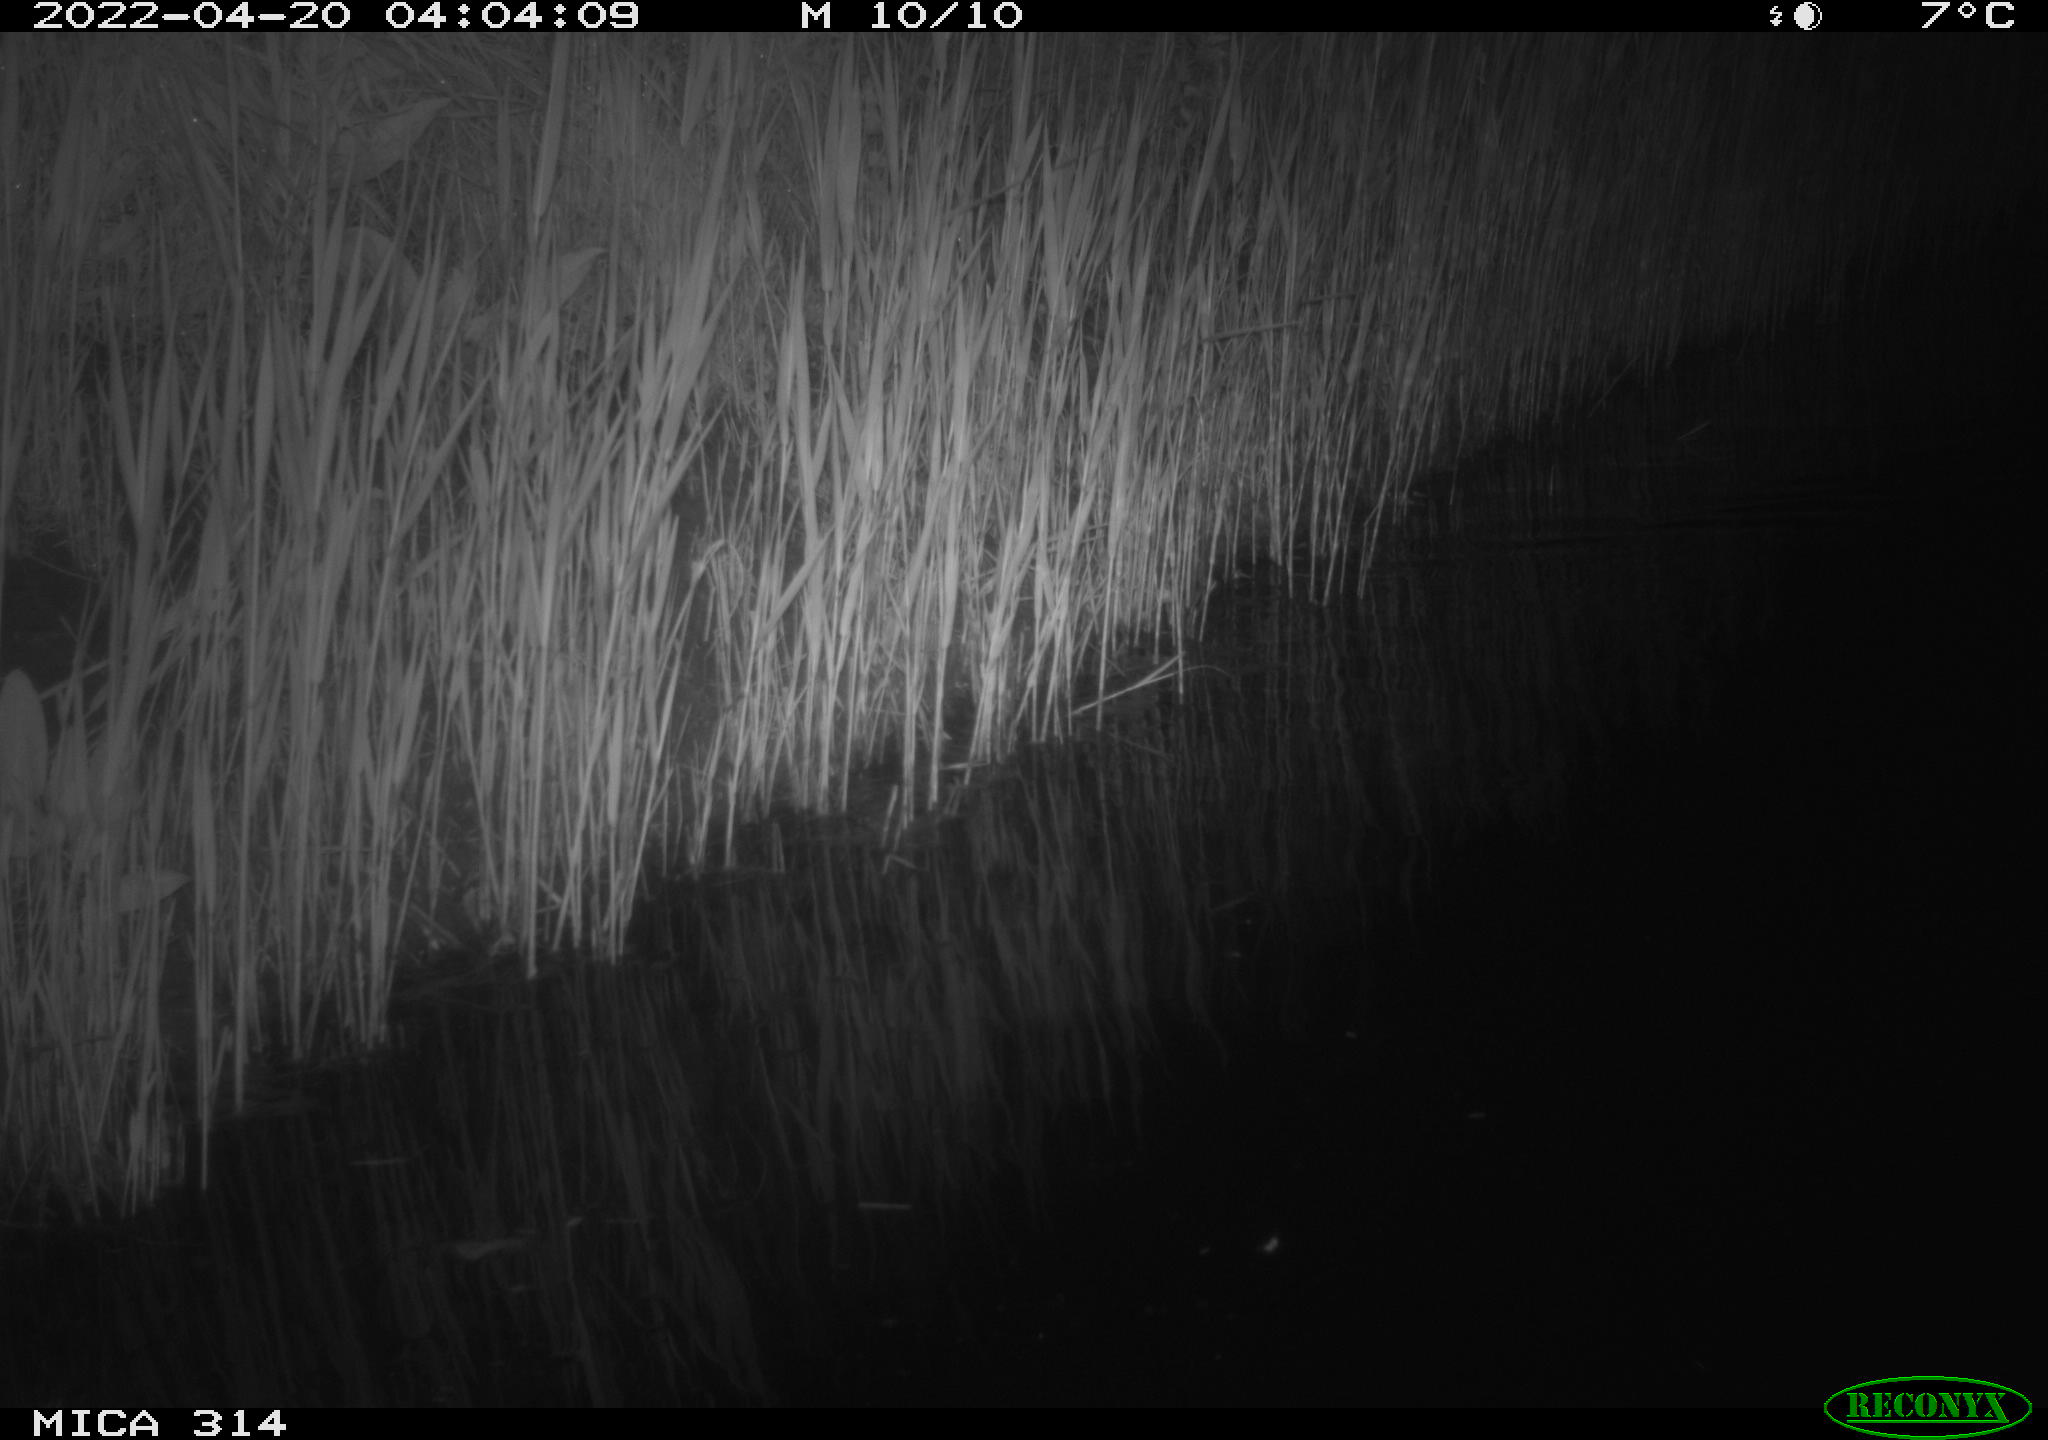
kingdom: Animalia
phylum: Chordata
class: Aves
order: Anseriformes
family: Anatidae
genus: Anas
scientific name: Anas platyrhynchos
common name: Mallard
